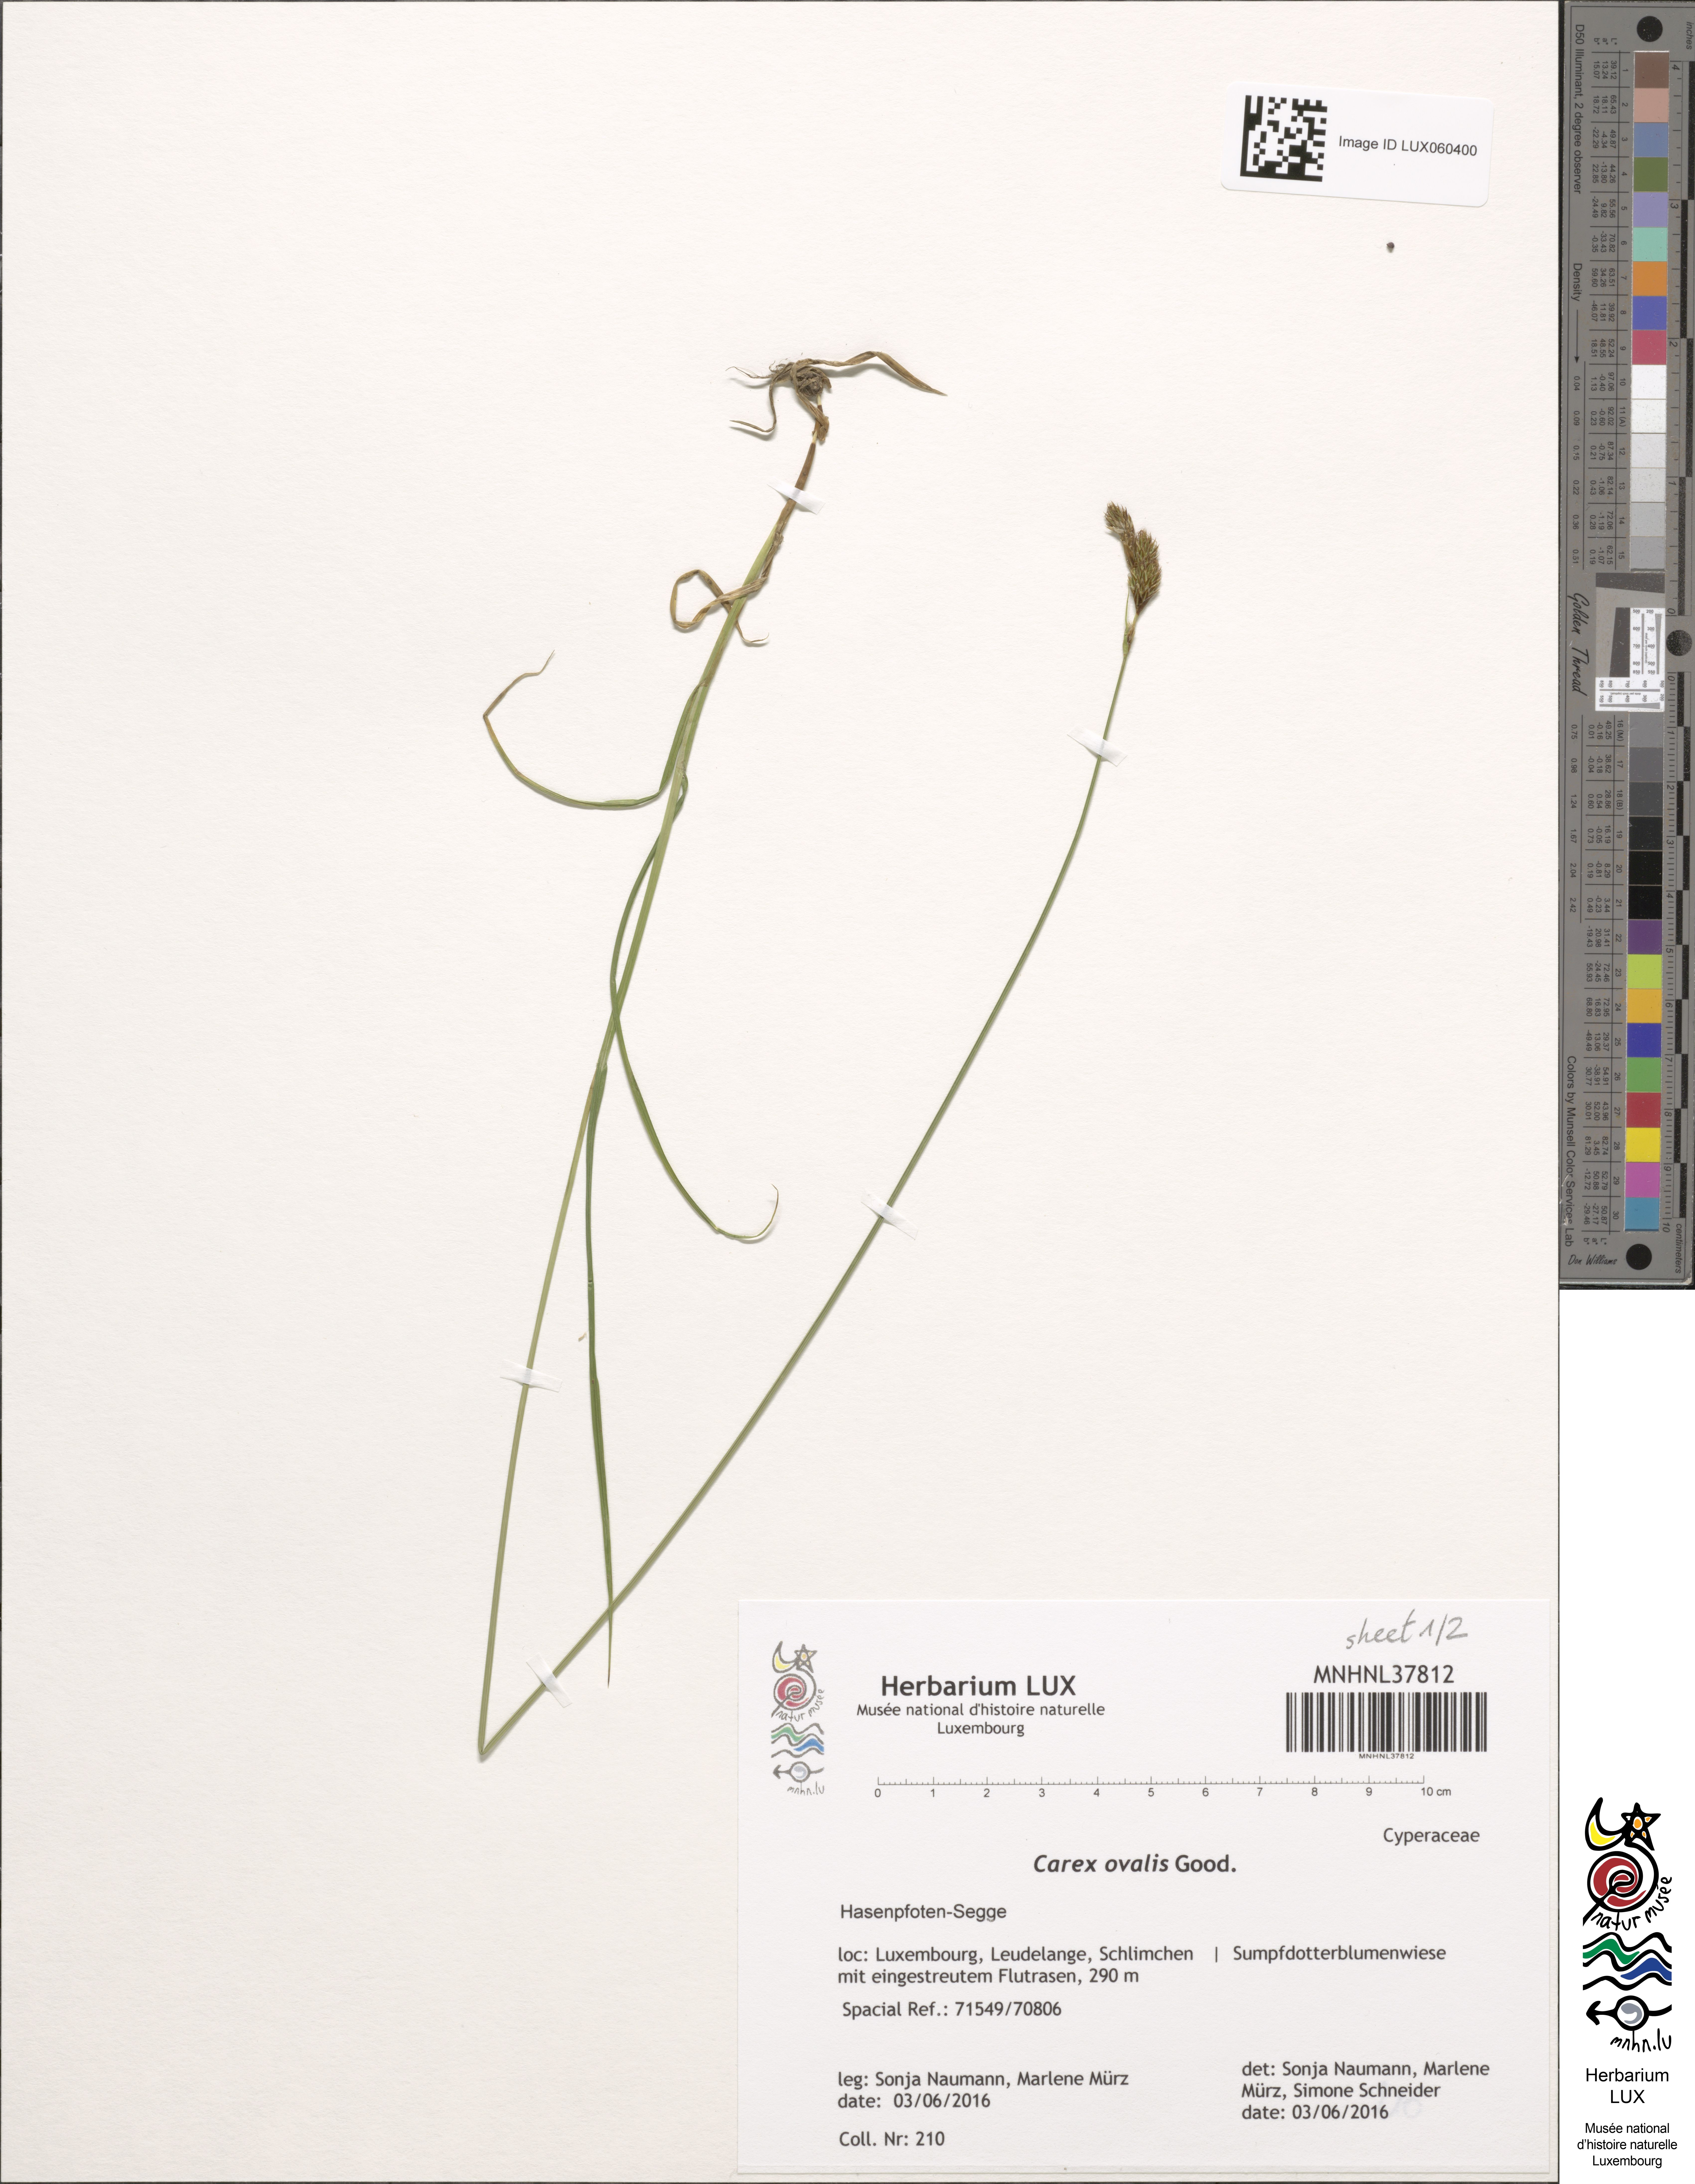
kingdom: Plantae
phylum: Tracheophyta
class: Liliopsida
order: Poales
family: Cyperaceae
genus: Carex
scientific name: Carex leporina
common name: Oval sedge
